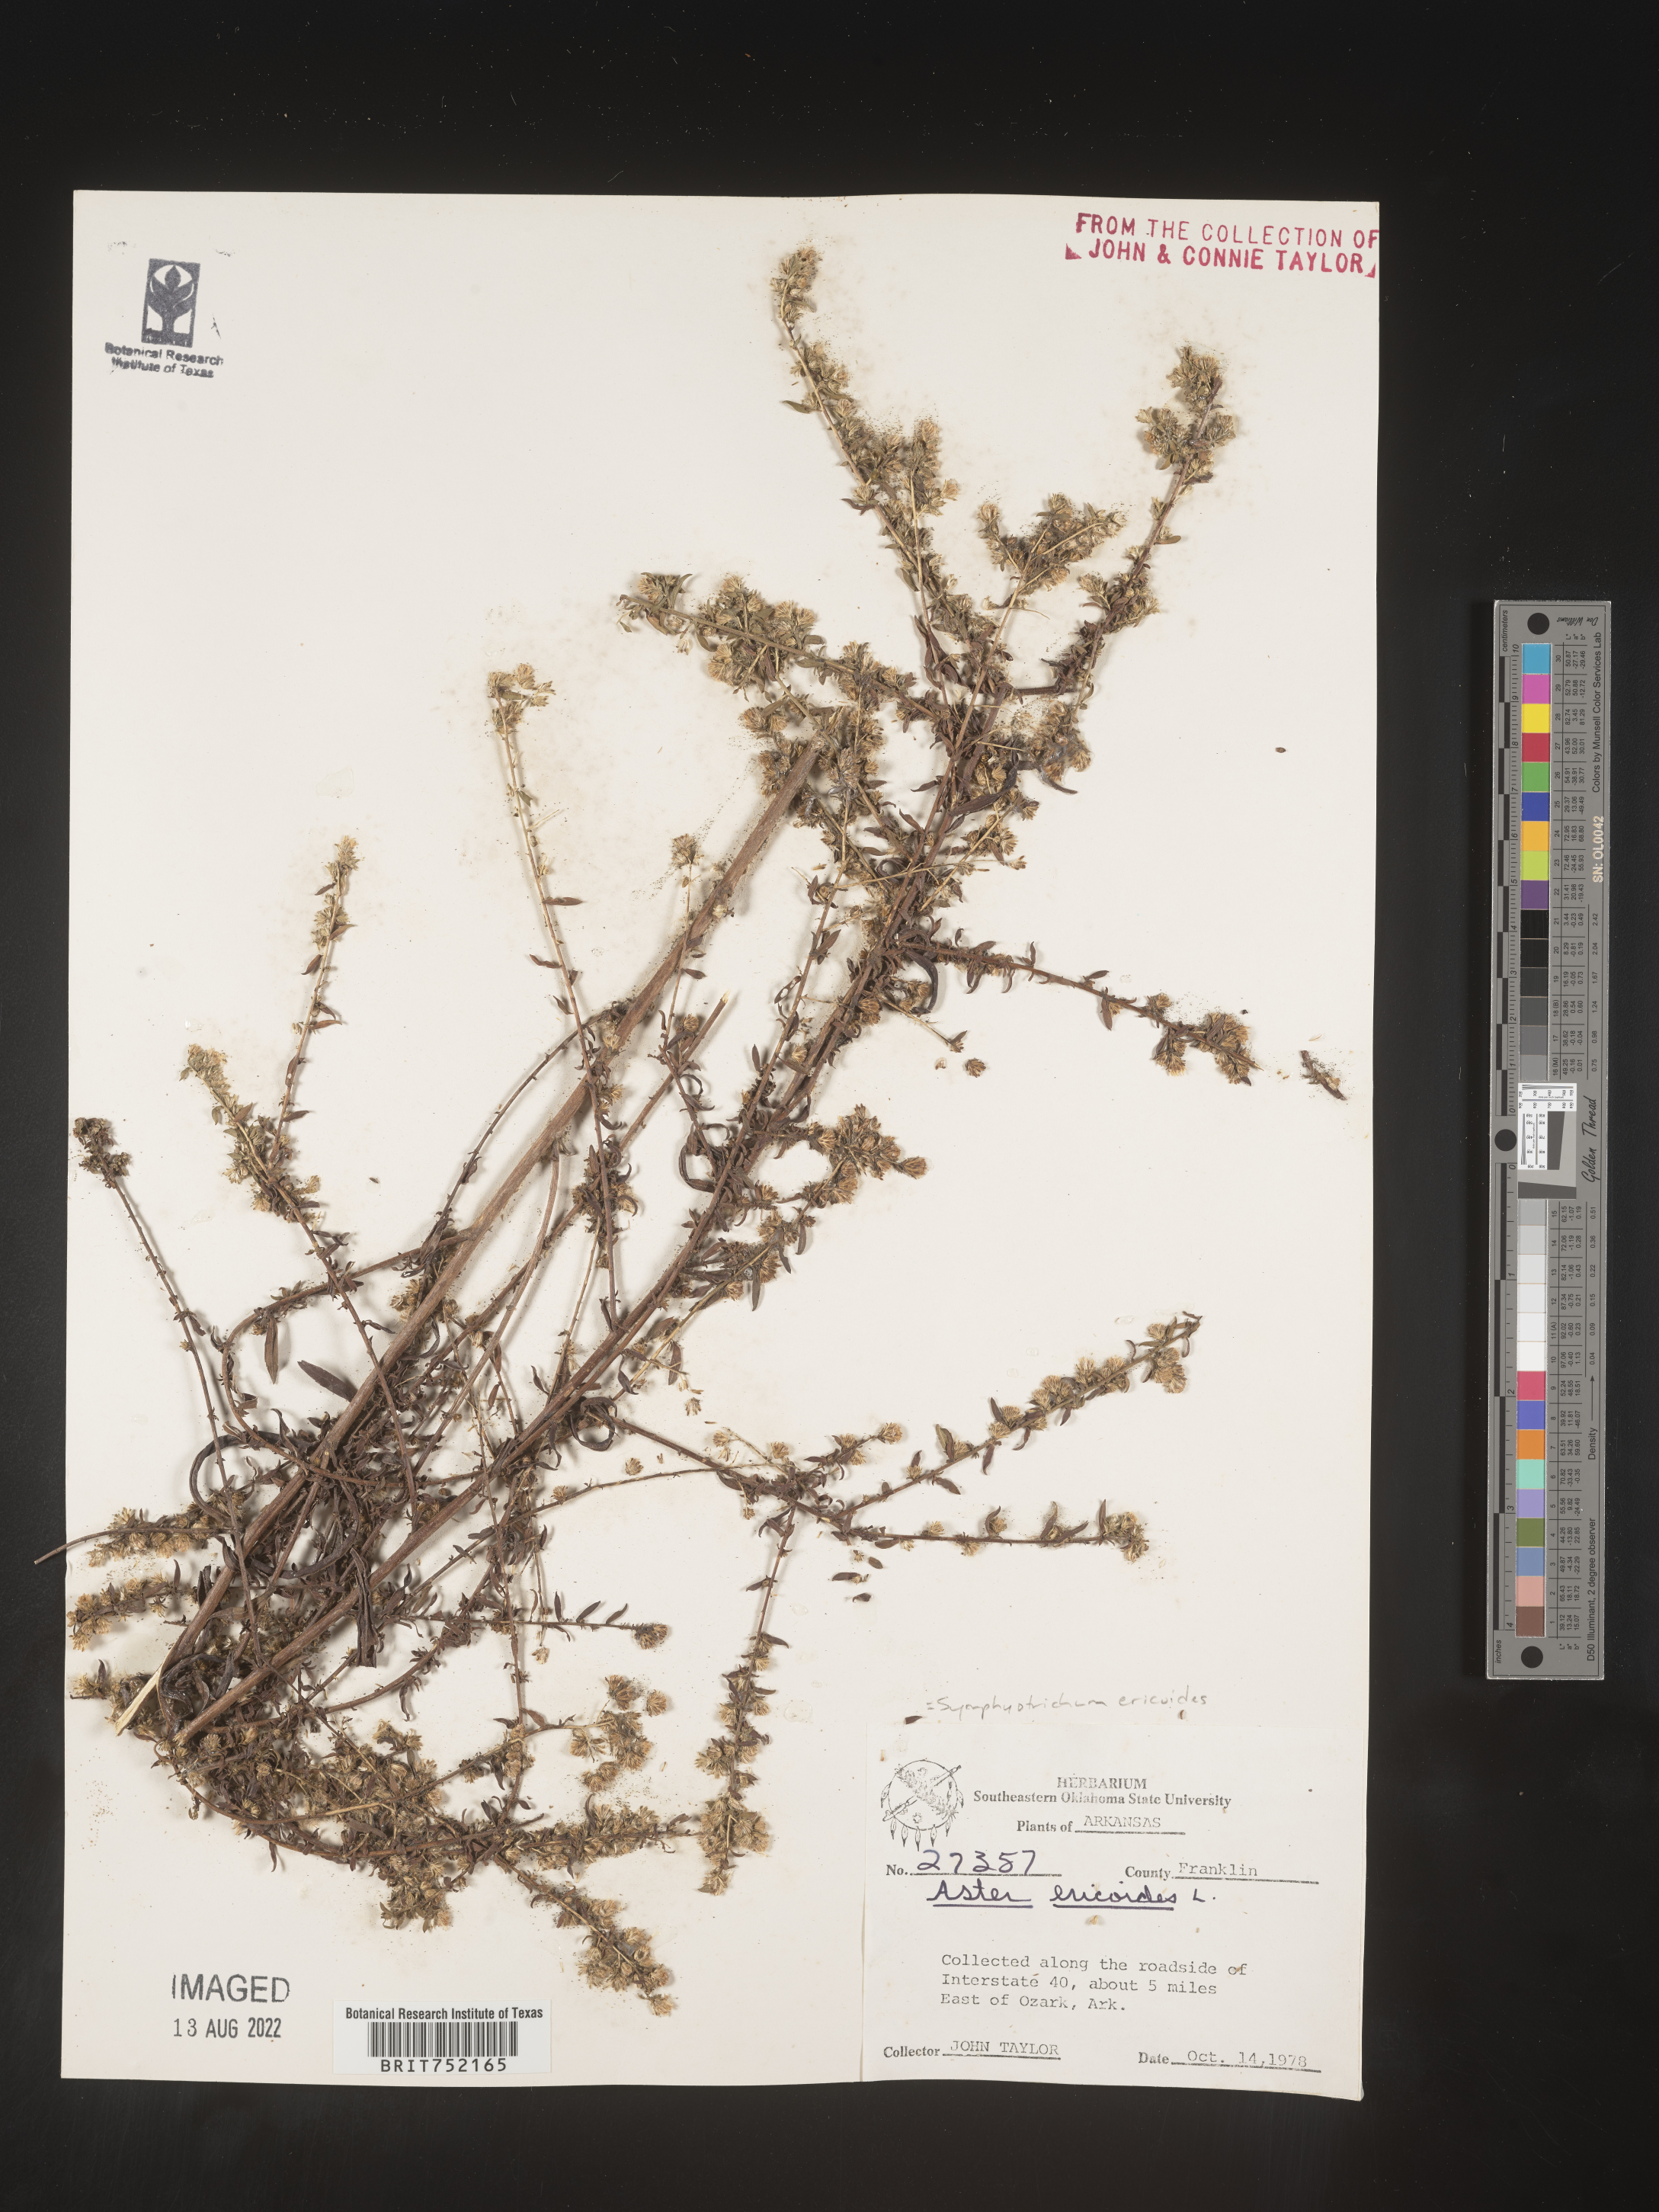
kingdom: Plantae
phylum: Tracheophyta
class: Magnoliopsida
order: Asterales
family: Asteraceae
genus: Symphyotrichum
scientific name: Symphyotrichum ericoides
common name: Heath aster
